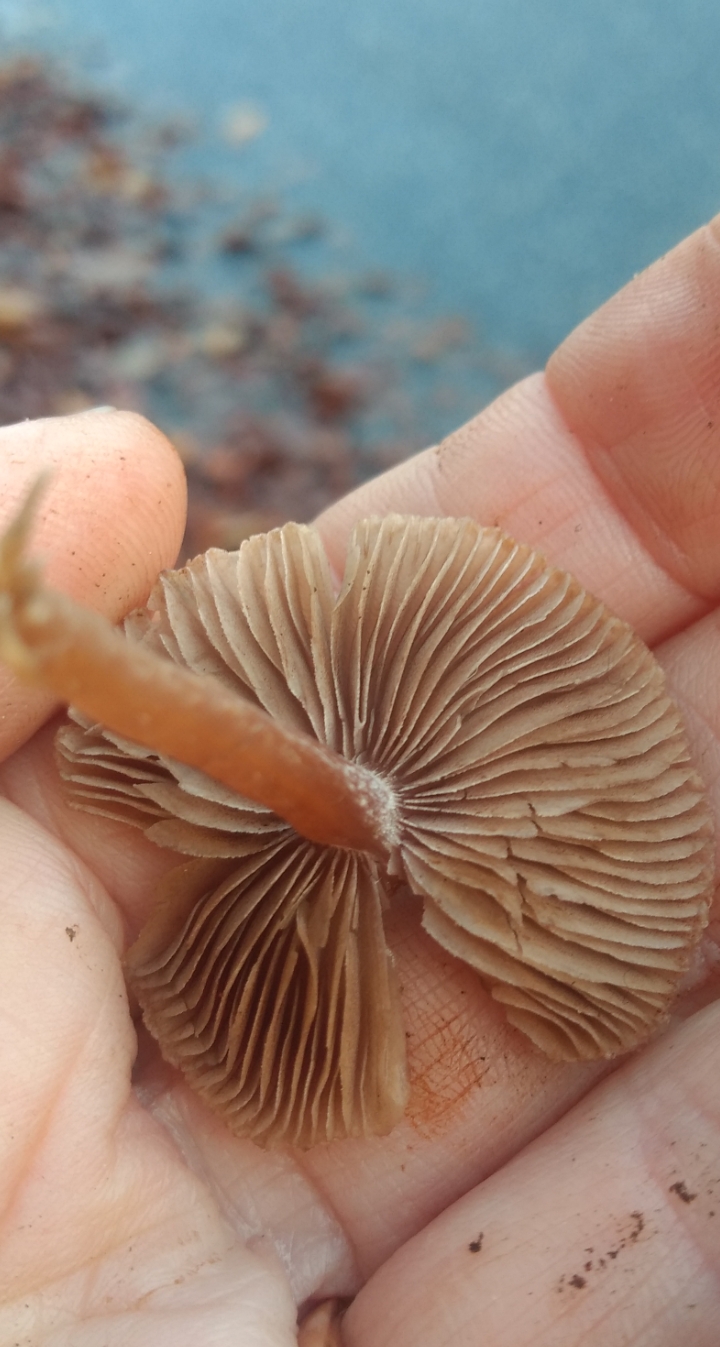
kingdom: Fungi
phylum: Basidiomycota
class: Agaricomycetes
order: Agaricales
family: Inocybaceae
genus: Inocybe
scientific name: Inocybe petiginosa
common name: liden trævlhat
